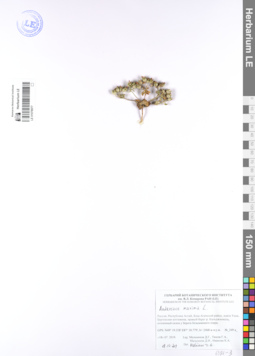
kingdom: Plantae
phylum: Tracheophyta
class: Magnoliopsida
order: Ericales
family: Primulaceae
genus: Androsace
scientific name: Androsace maxima
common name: Annual androsace
